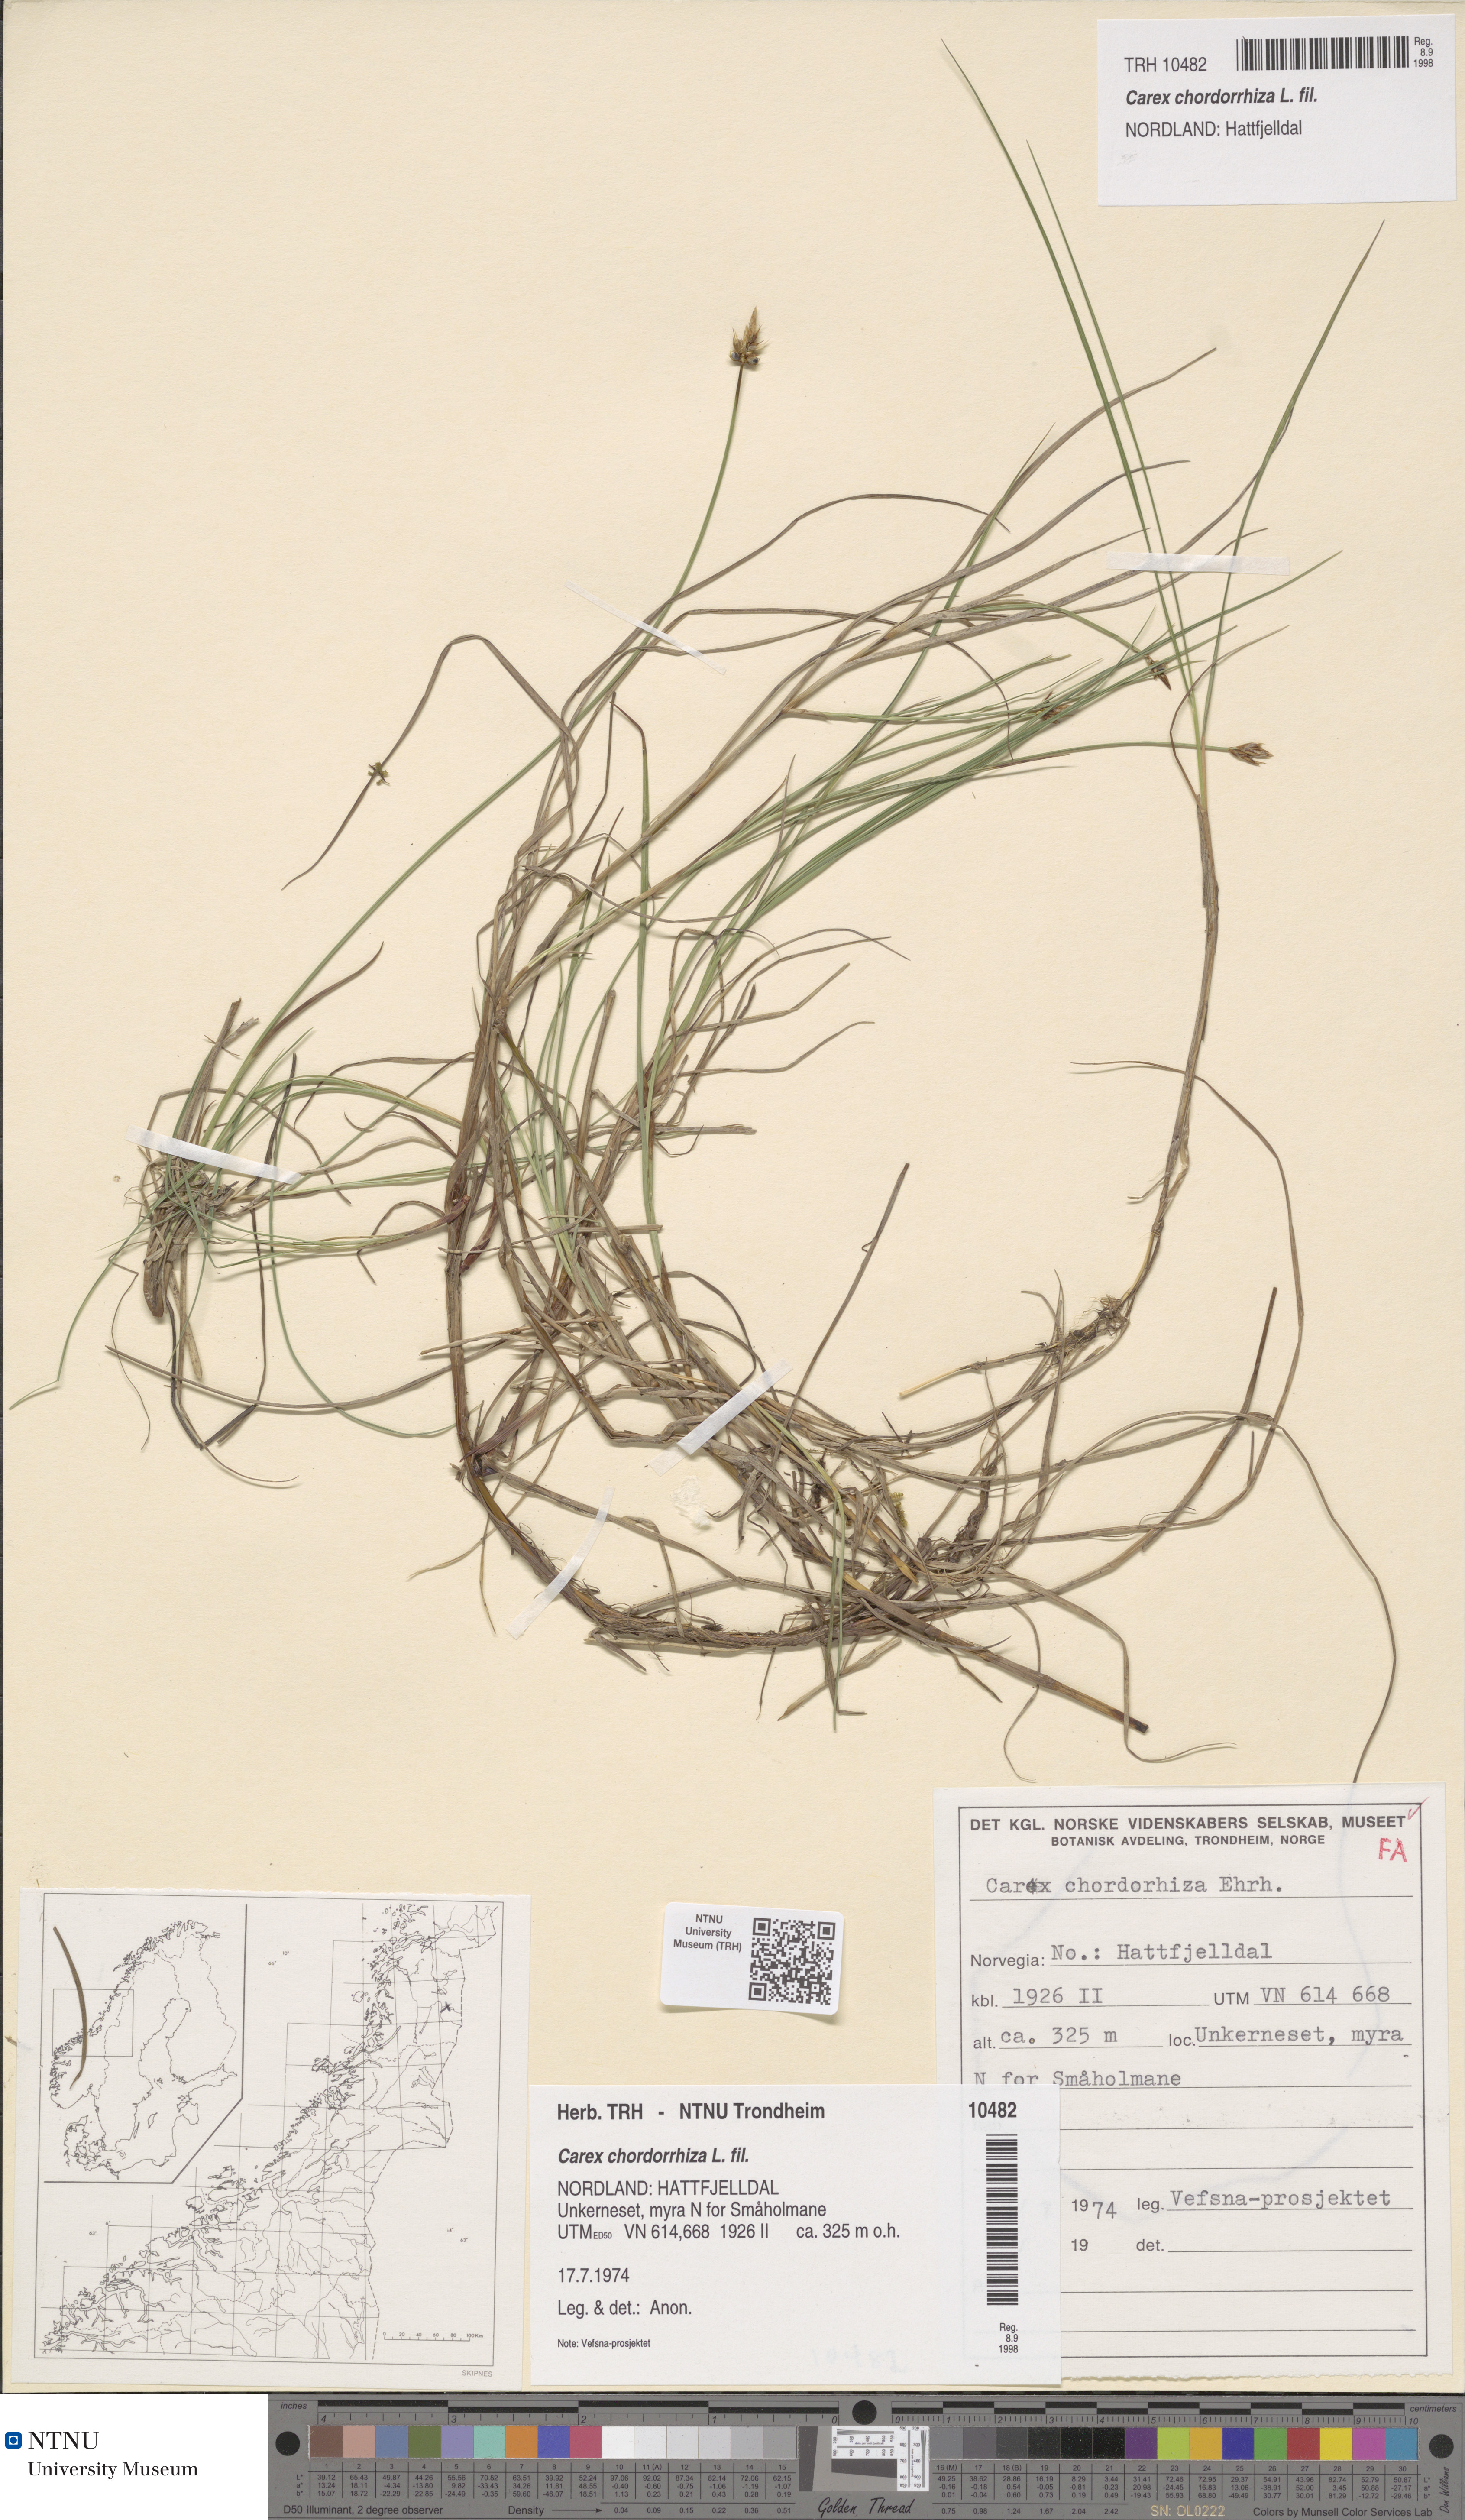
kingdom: Plantae
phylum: Tracheophyta
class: Liliopsida
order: Poales
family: Cyperaceae
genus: Carex
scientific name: Carex chordorrhiza
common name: String sedge
